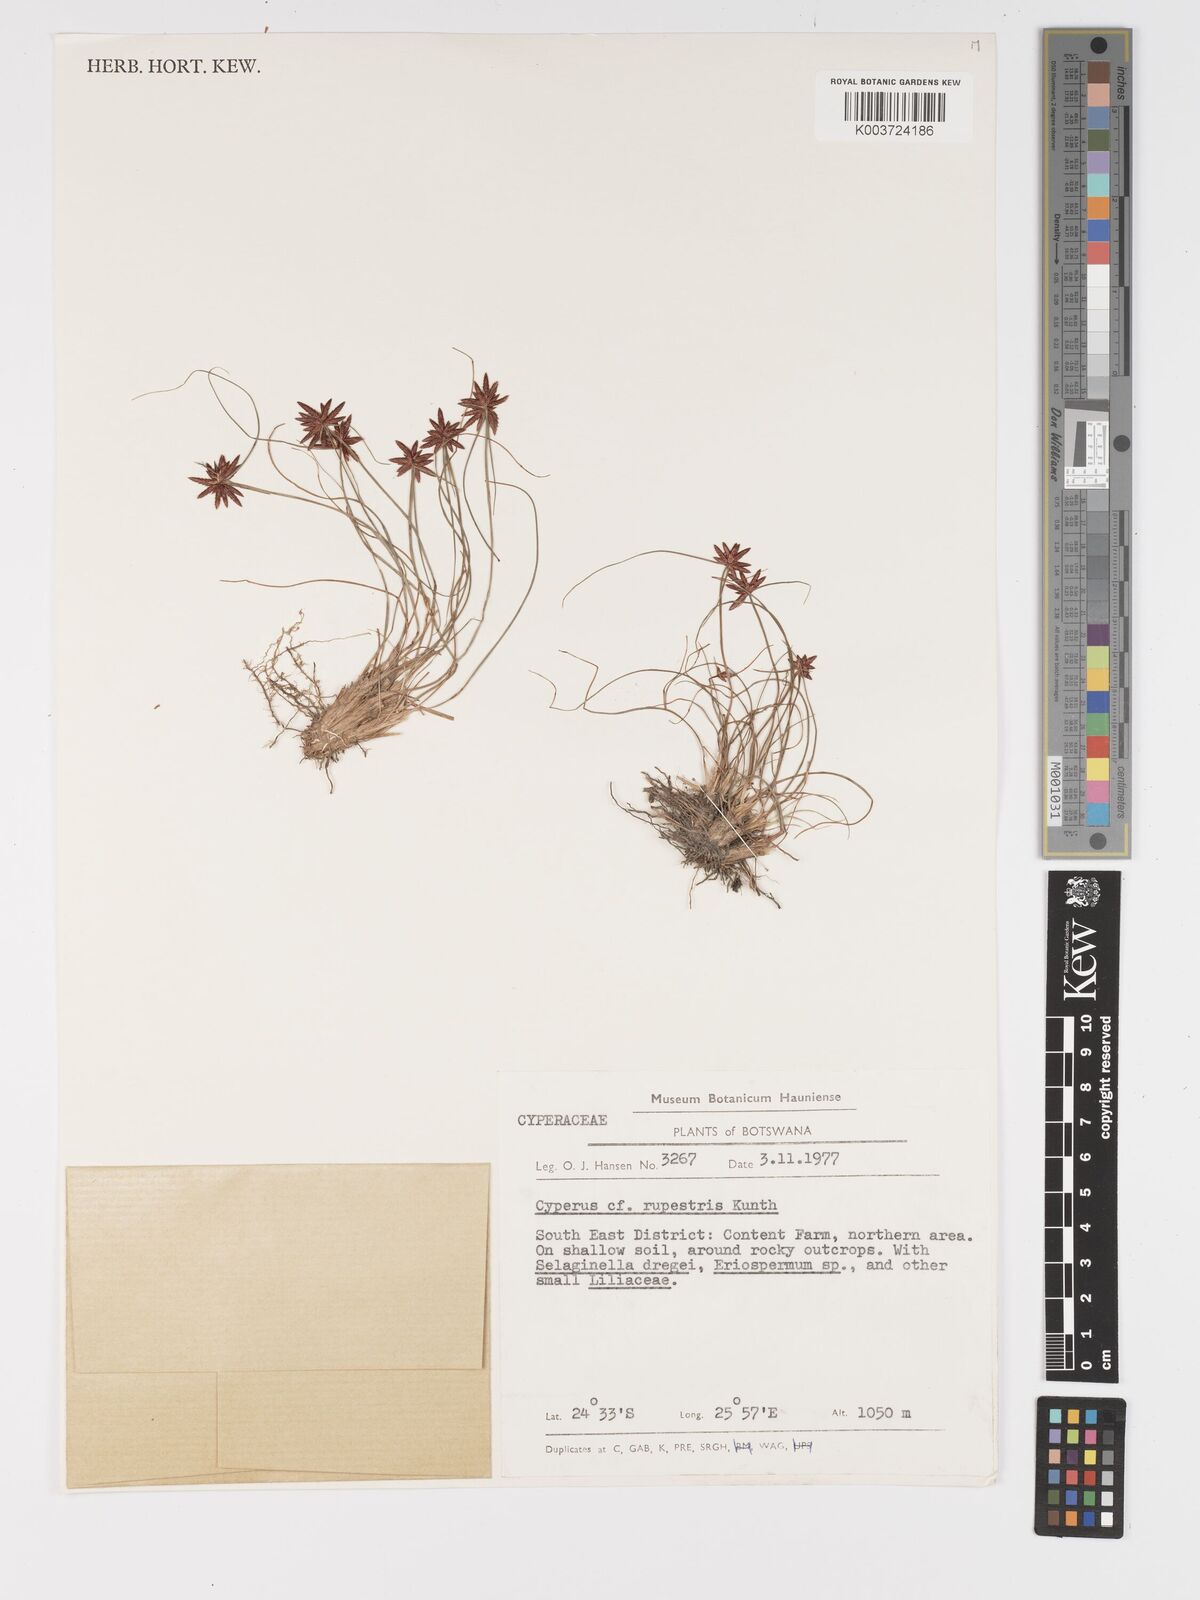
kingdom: Plantae
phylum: Tracheophyta
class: Liliopsida
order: Poales
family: Cyperaceae
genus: Cyperus
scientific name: Cyperus rupestris
